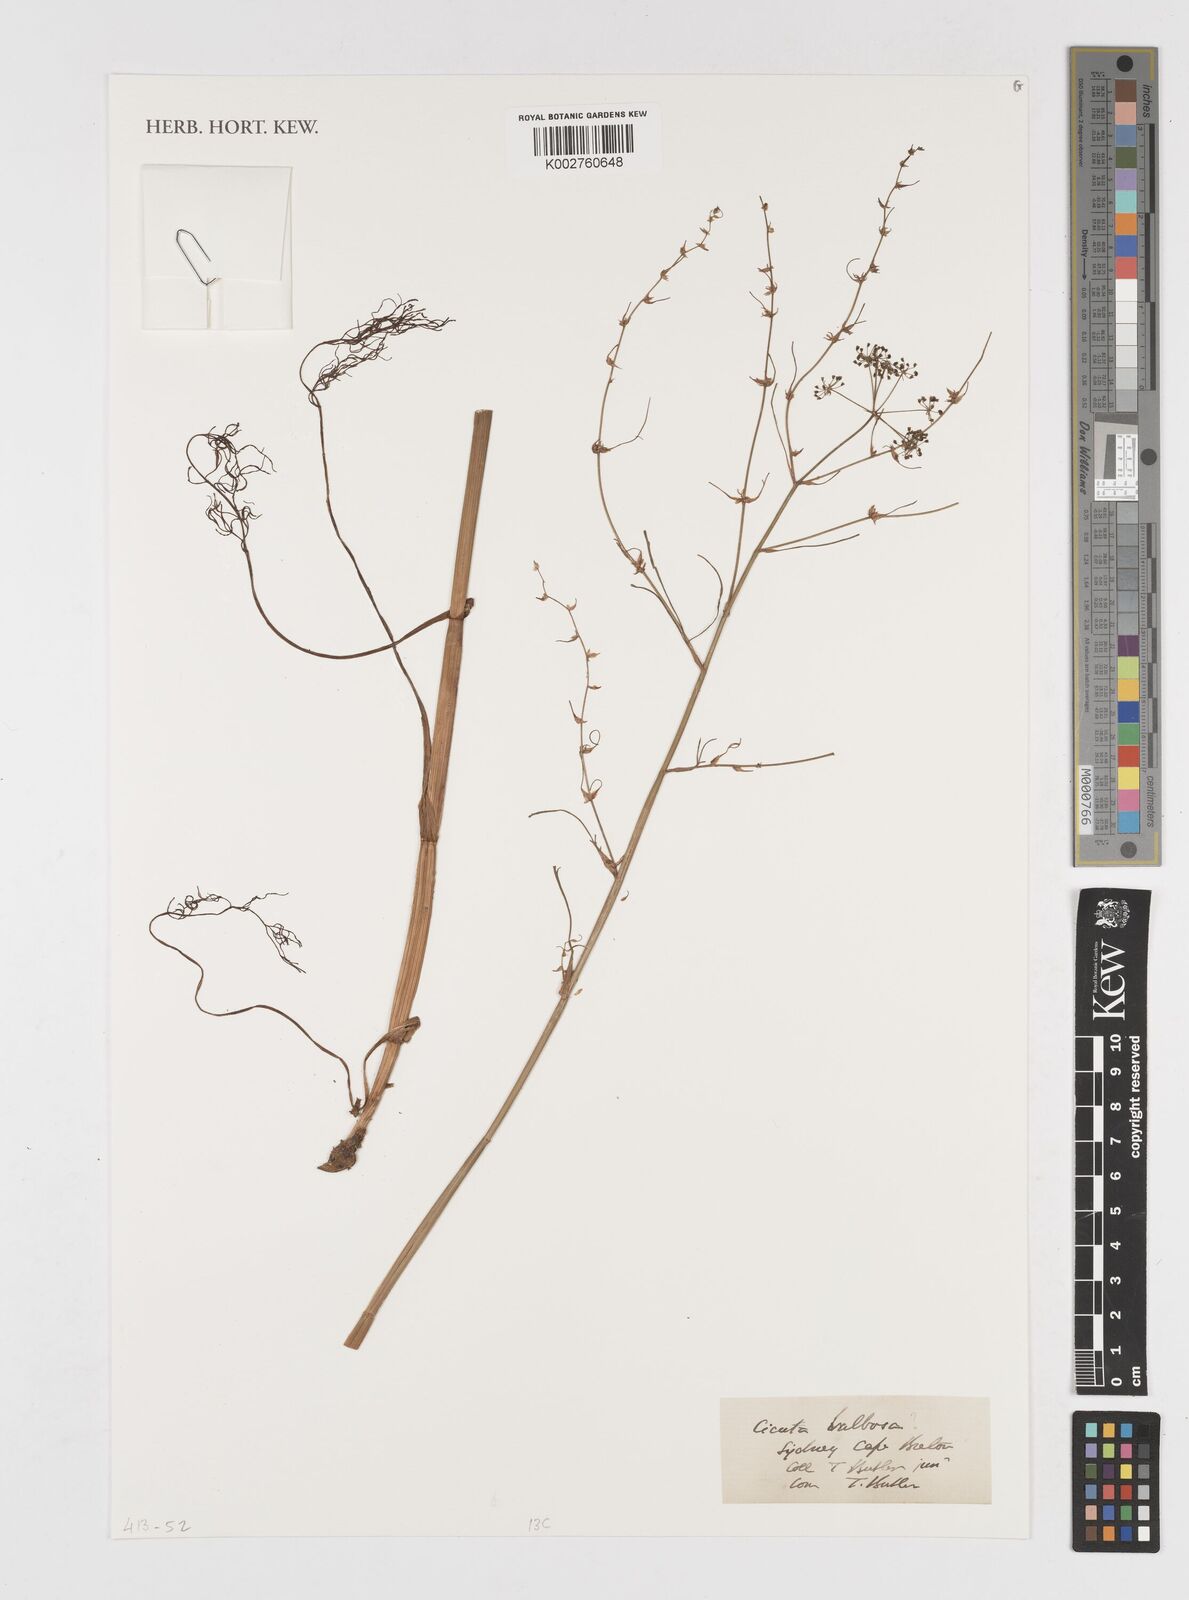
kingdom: Plantae
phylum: Tracheophyta
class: Magnoliopsida
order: Apiales
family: Apiaceae
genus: Cicuta
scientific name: Cicuta
